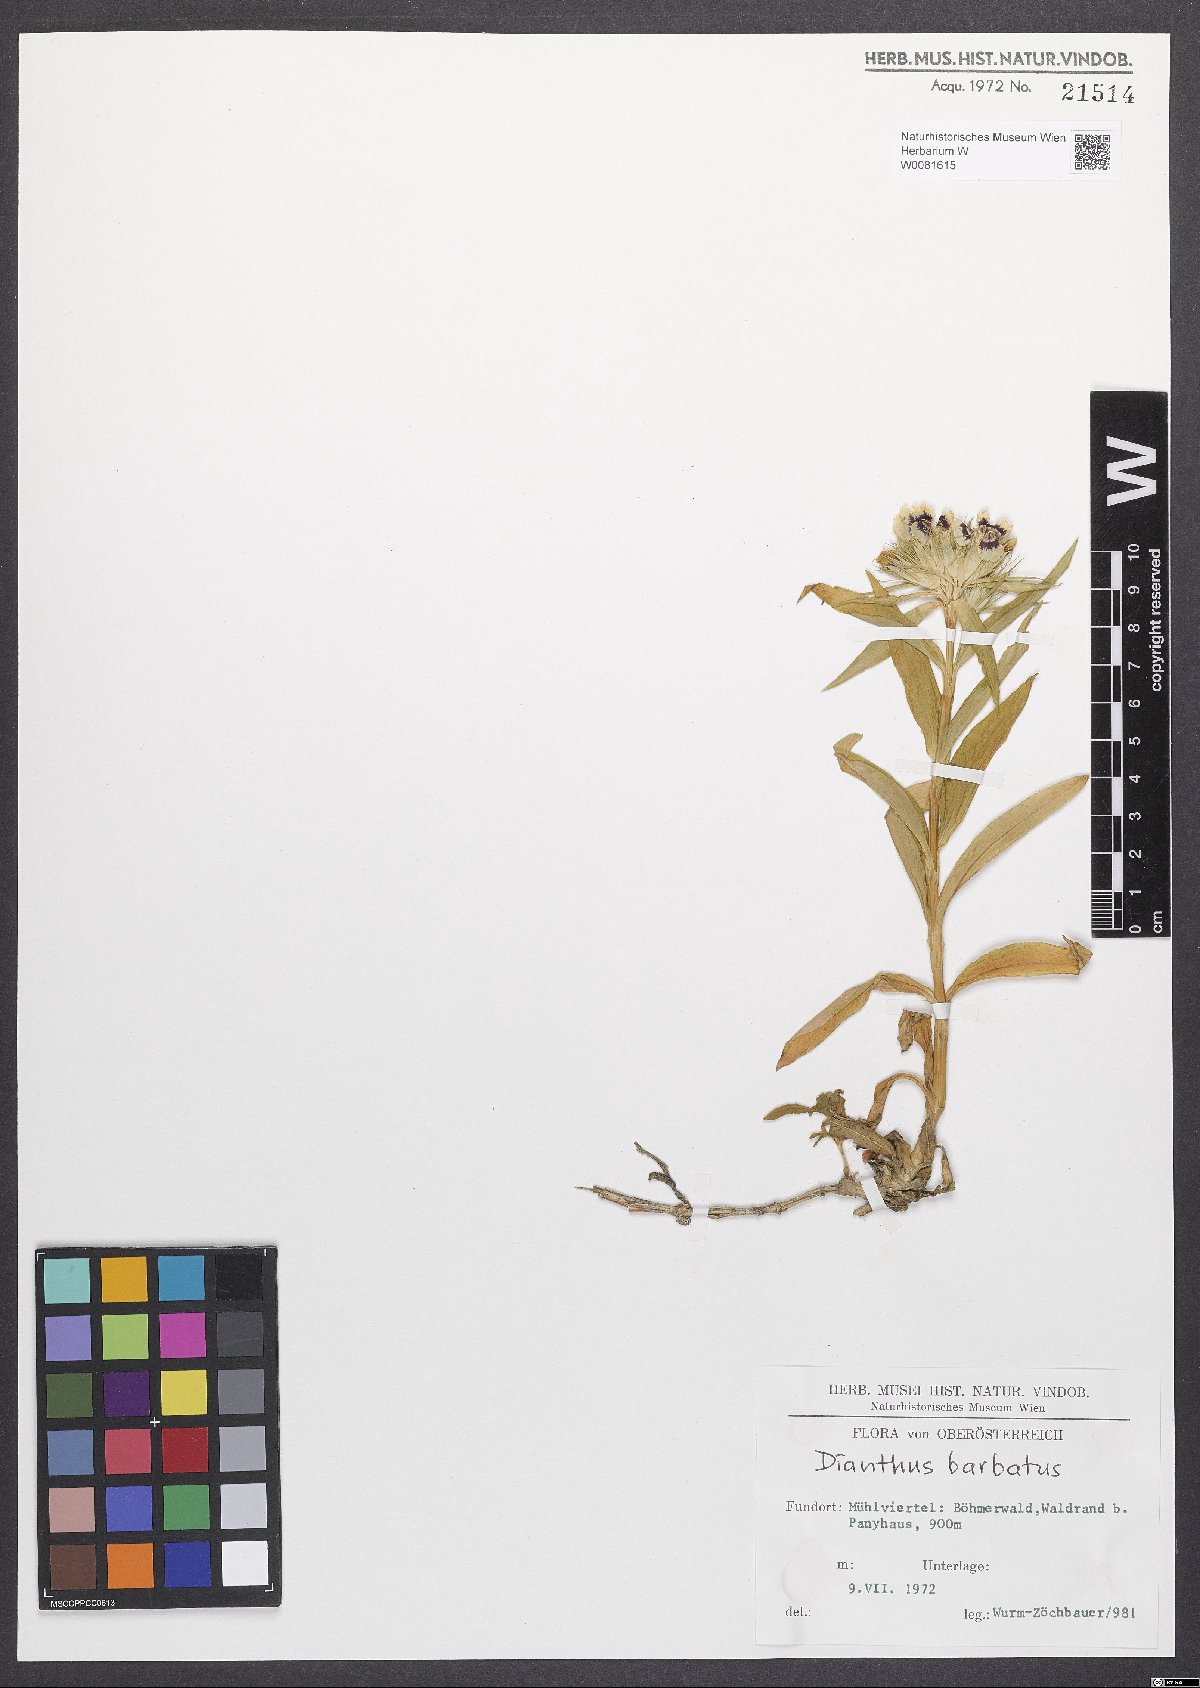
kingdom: Plantae
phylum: Tracheophyta
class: Magnoliopsida
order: Caryophyllales
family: Caryophyllaceae
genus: Dianthus
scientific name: Dianthus barbatus
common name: Sweet-william
